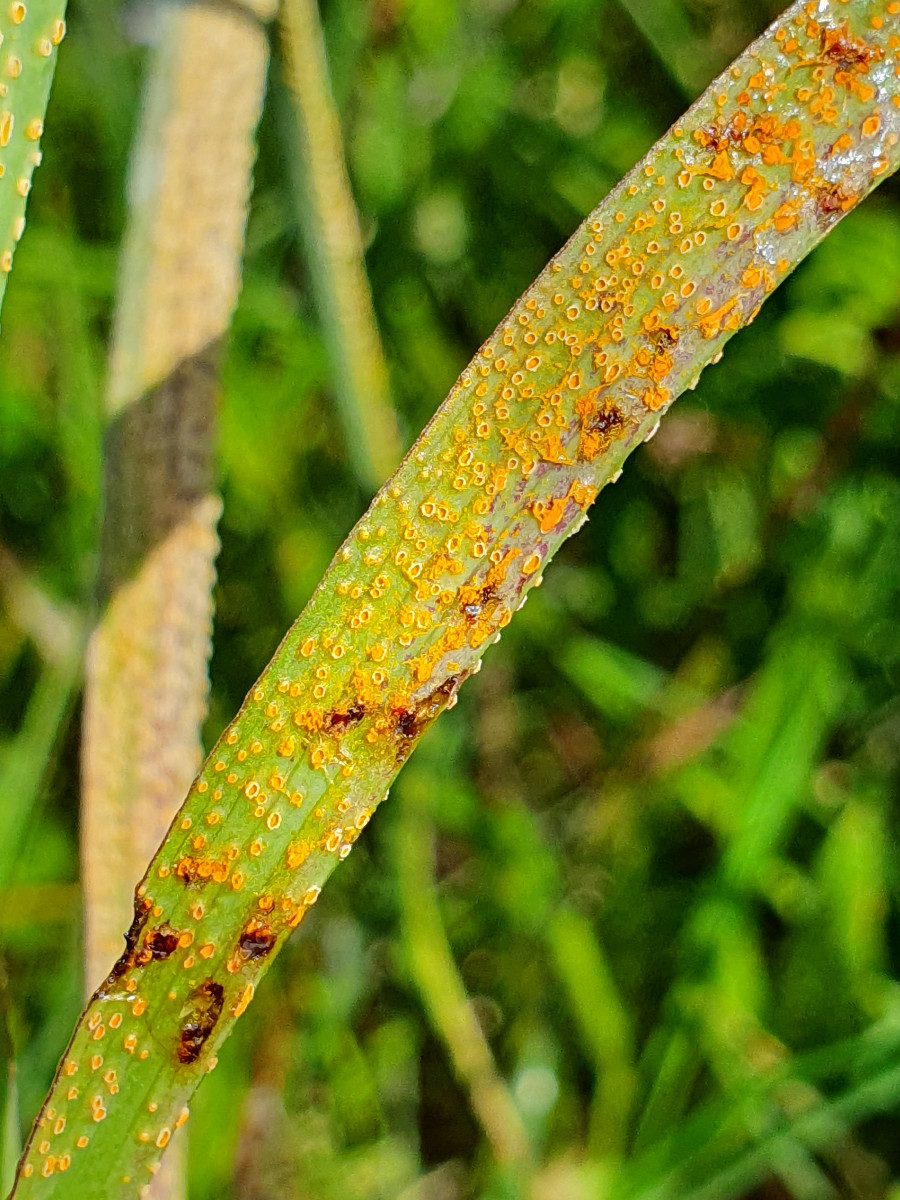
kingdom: Fungi
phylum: Basidiomycota
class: Pucciniomycetes
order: Pucciniales
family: Pucciniaceae
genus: Puccinia
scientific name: Puccinia hysterium
